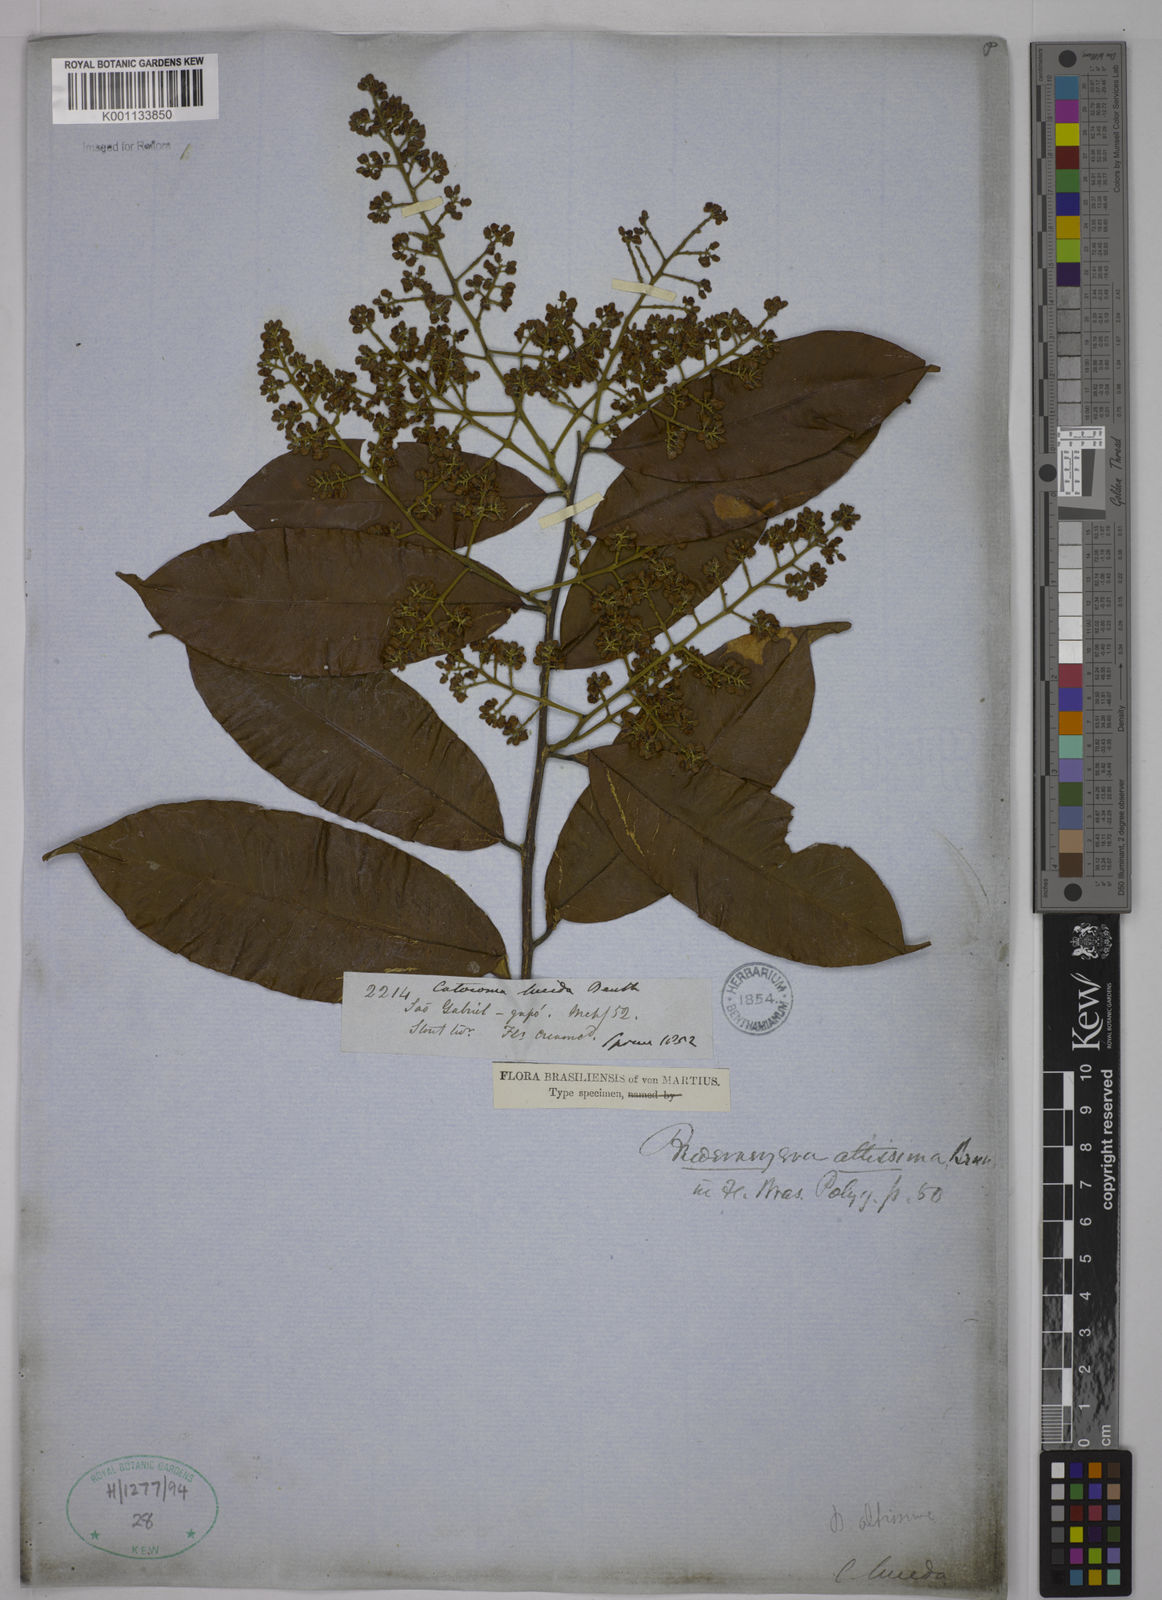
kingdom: Plantae
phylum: Tracheophyta
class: Magnoliopsida
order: Fabales
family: Polygalaceae
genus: Bredemeyera
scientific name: Bredemeyera divaricata
